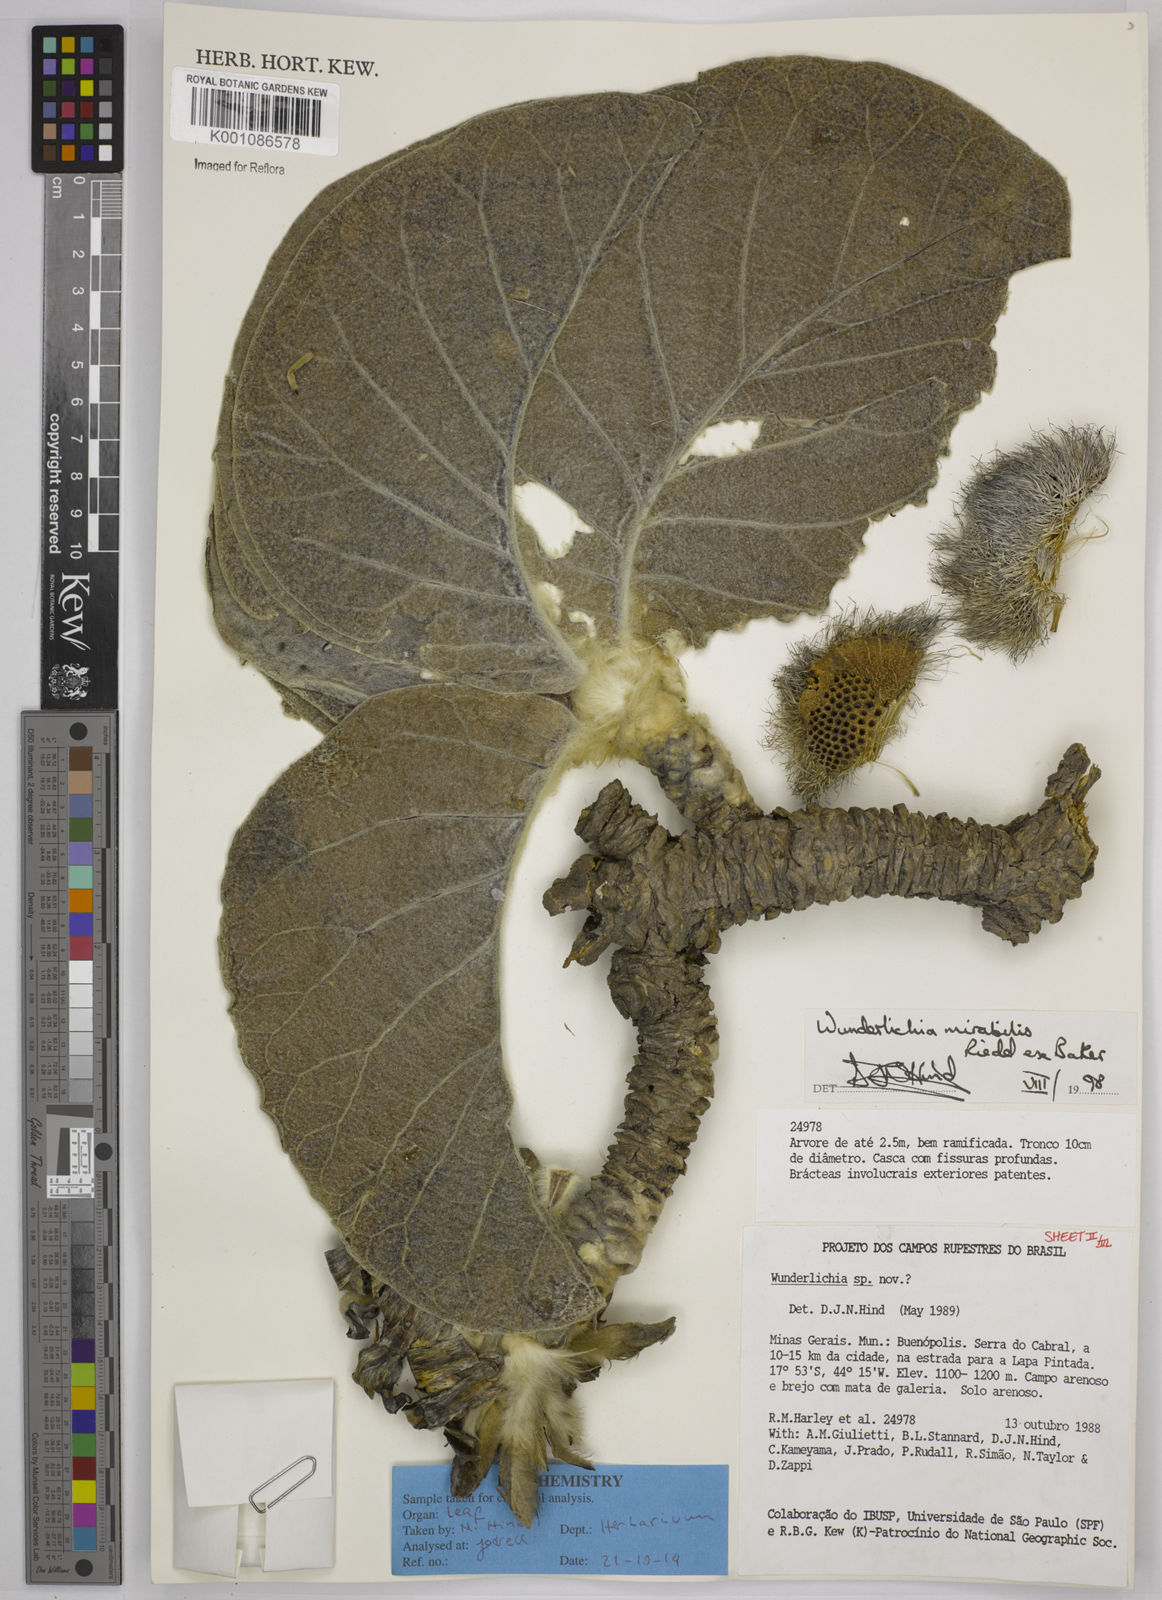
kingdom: Plantae
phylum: Tracheophyta
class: Magnoliopsida
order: Asterales
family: Asteraceae
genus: Wunderlichia
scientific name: Wunderlichia mirabilis
